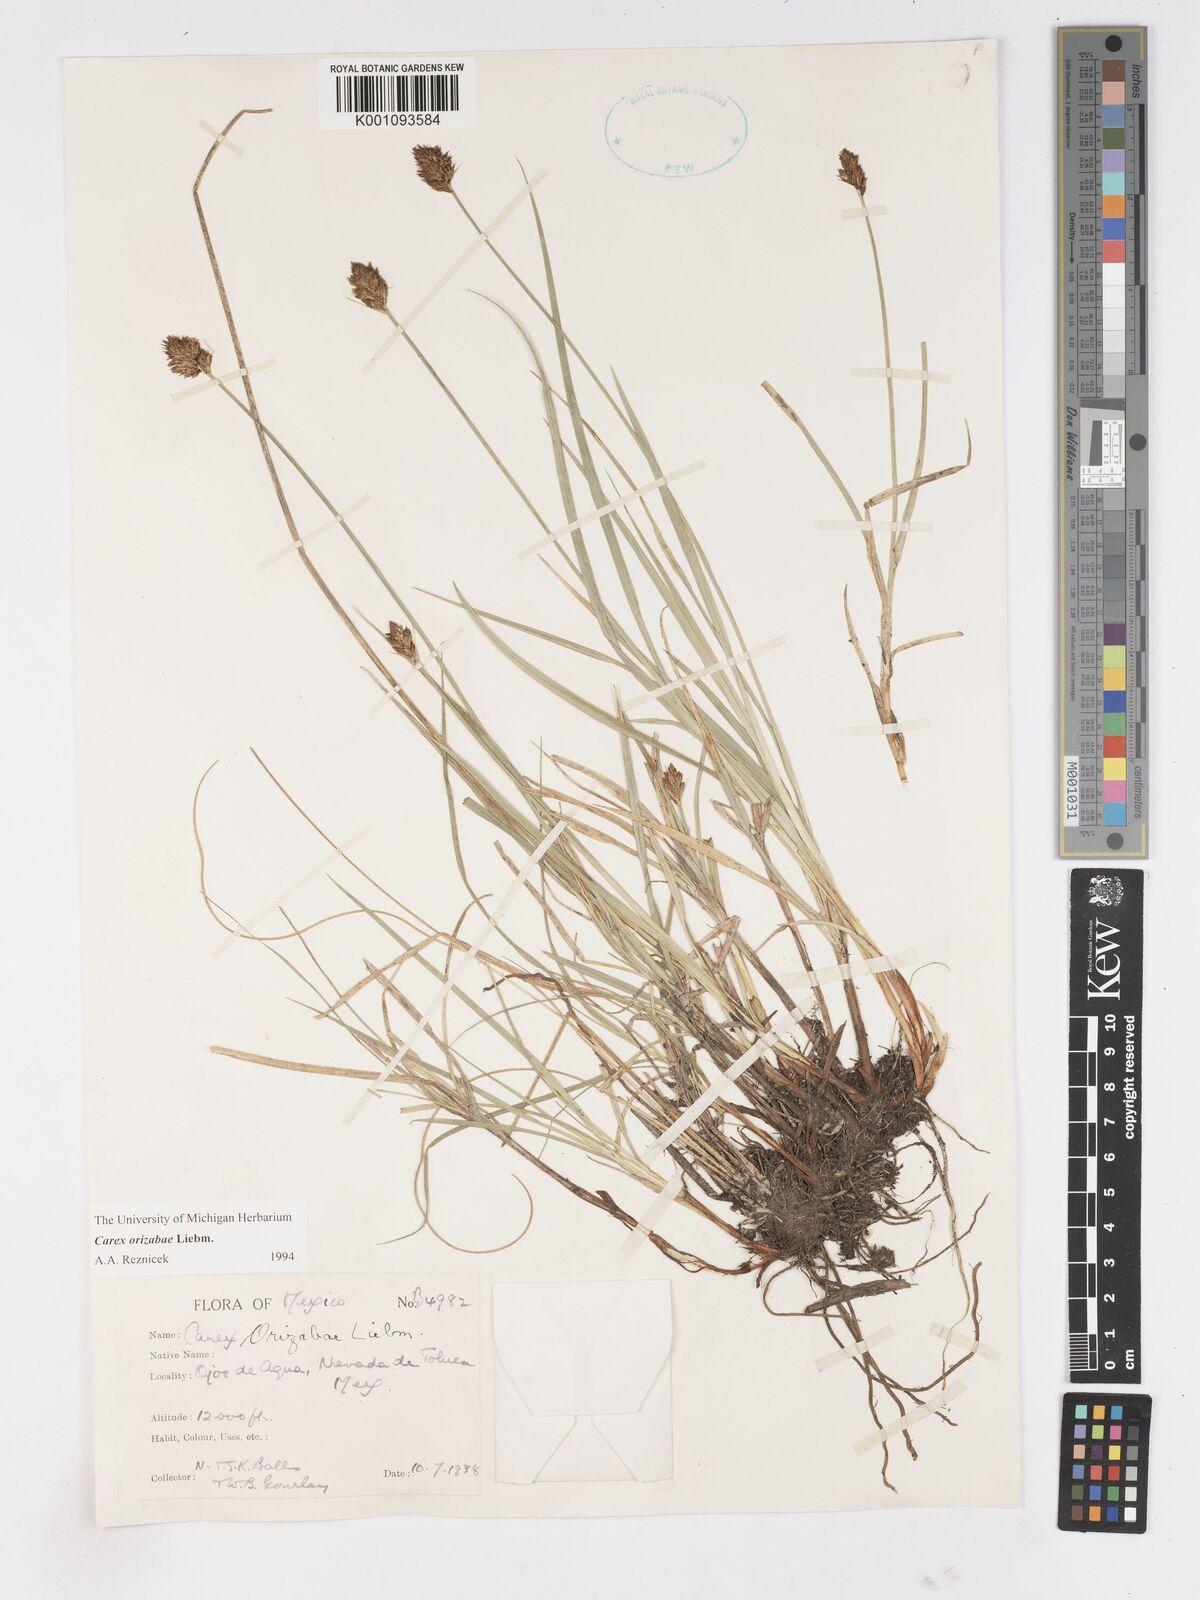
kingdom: Plantae
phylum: Tracheophyta
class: Liliopsida
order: Poales
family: Cyperaceae
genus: Carex
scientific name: Carex orizabae
